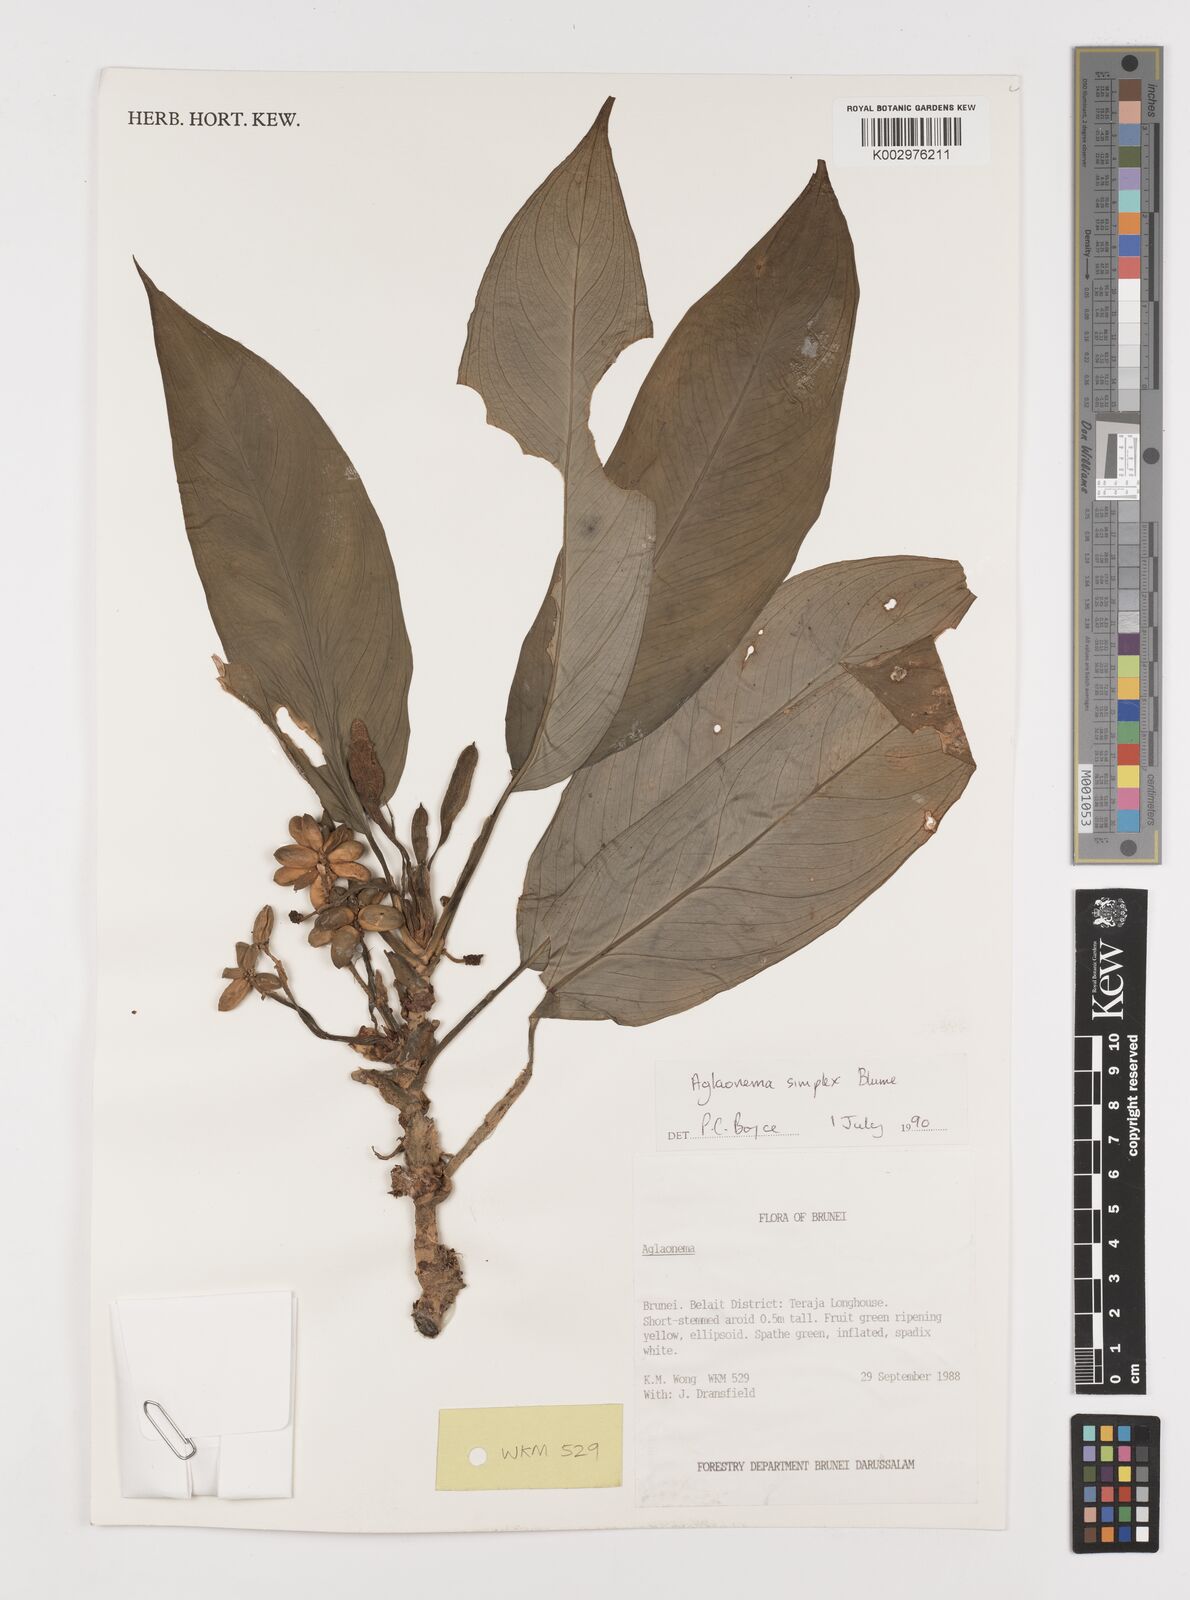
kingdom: Plantae
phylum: Tracheophyta
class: Liliopsida
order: Alismatales
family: Araceae
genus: Aglaonema
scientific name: Aglaonema simplex
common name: Malayan-sword
